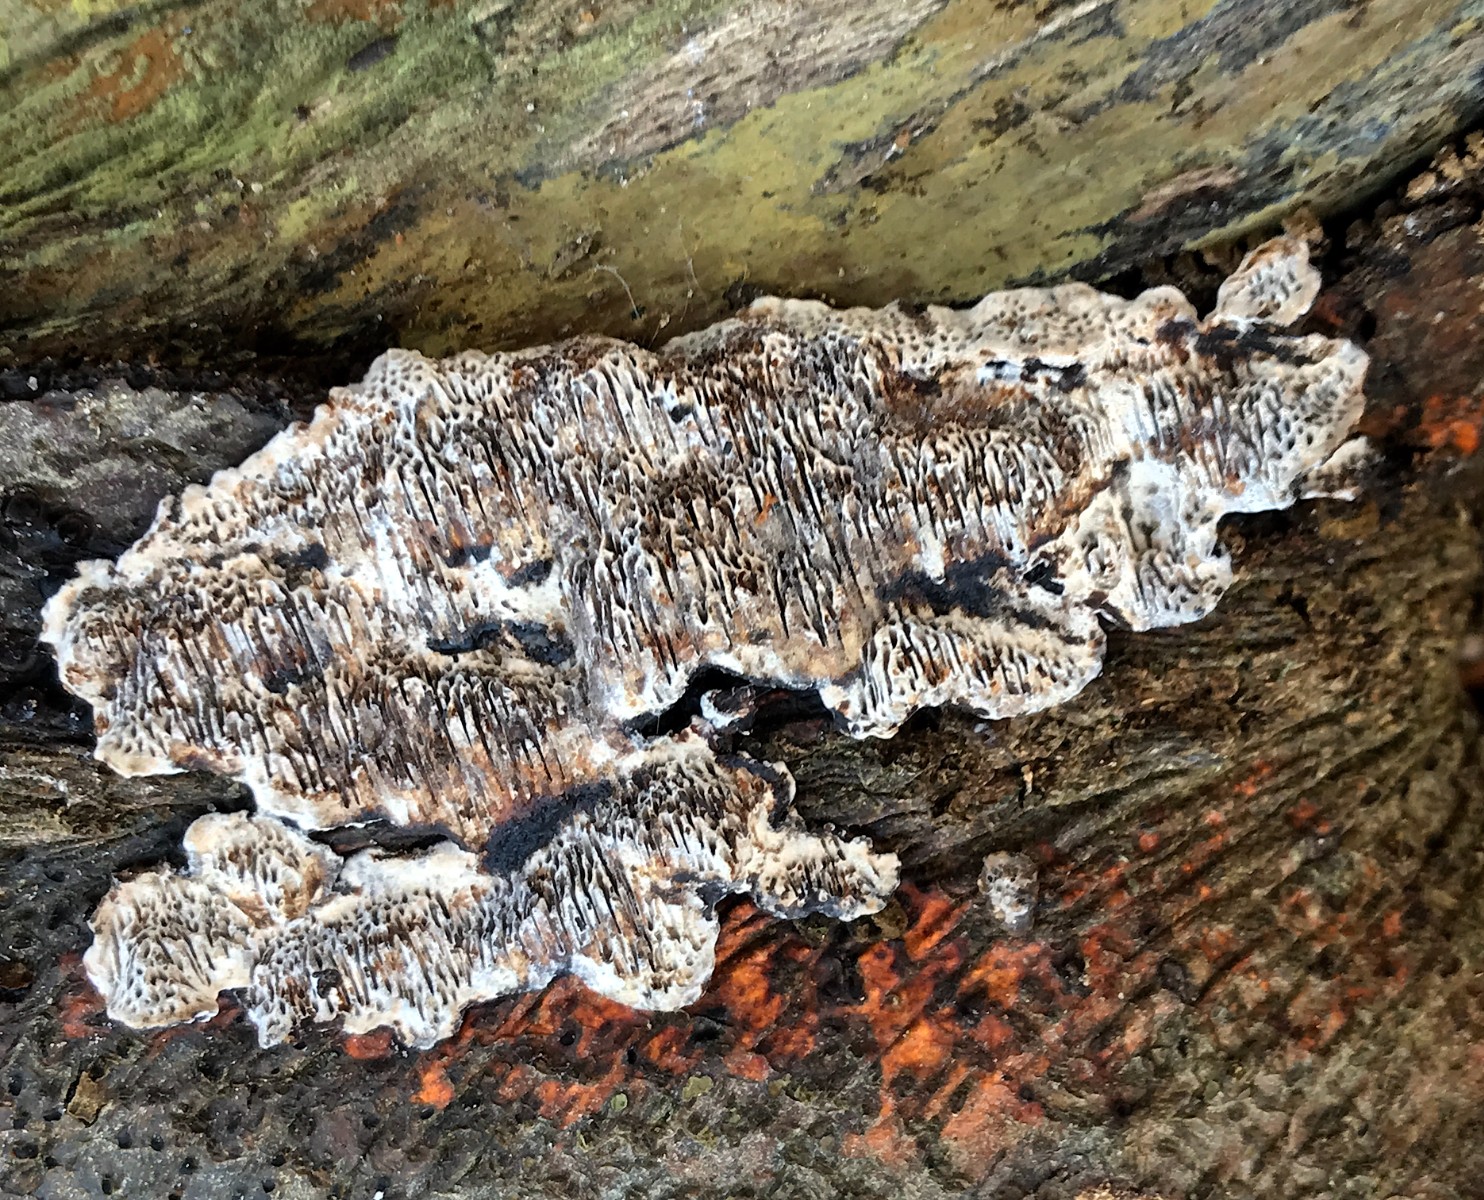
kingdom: Fungi
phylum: Basidiomycota
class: Agaricomycetes
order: Polyporales
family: Polyporaceae
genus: Podofomes
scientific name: Podofomes mollis
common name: blød begporesvamp
